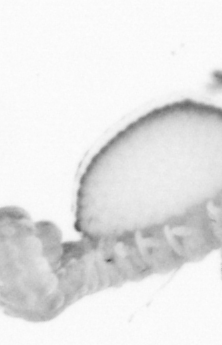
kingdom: Animalia
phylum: Arthropoda
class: Copepoda
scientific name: Copepoda
